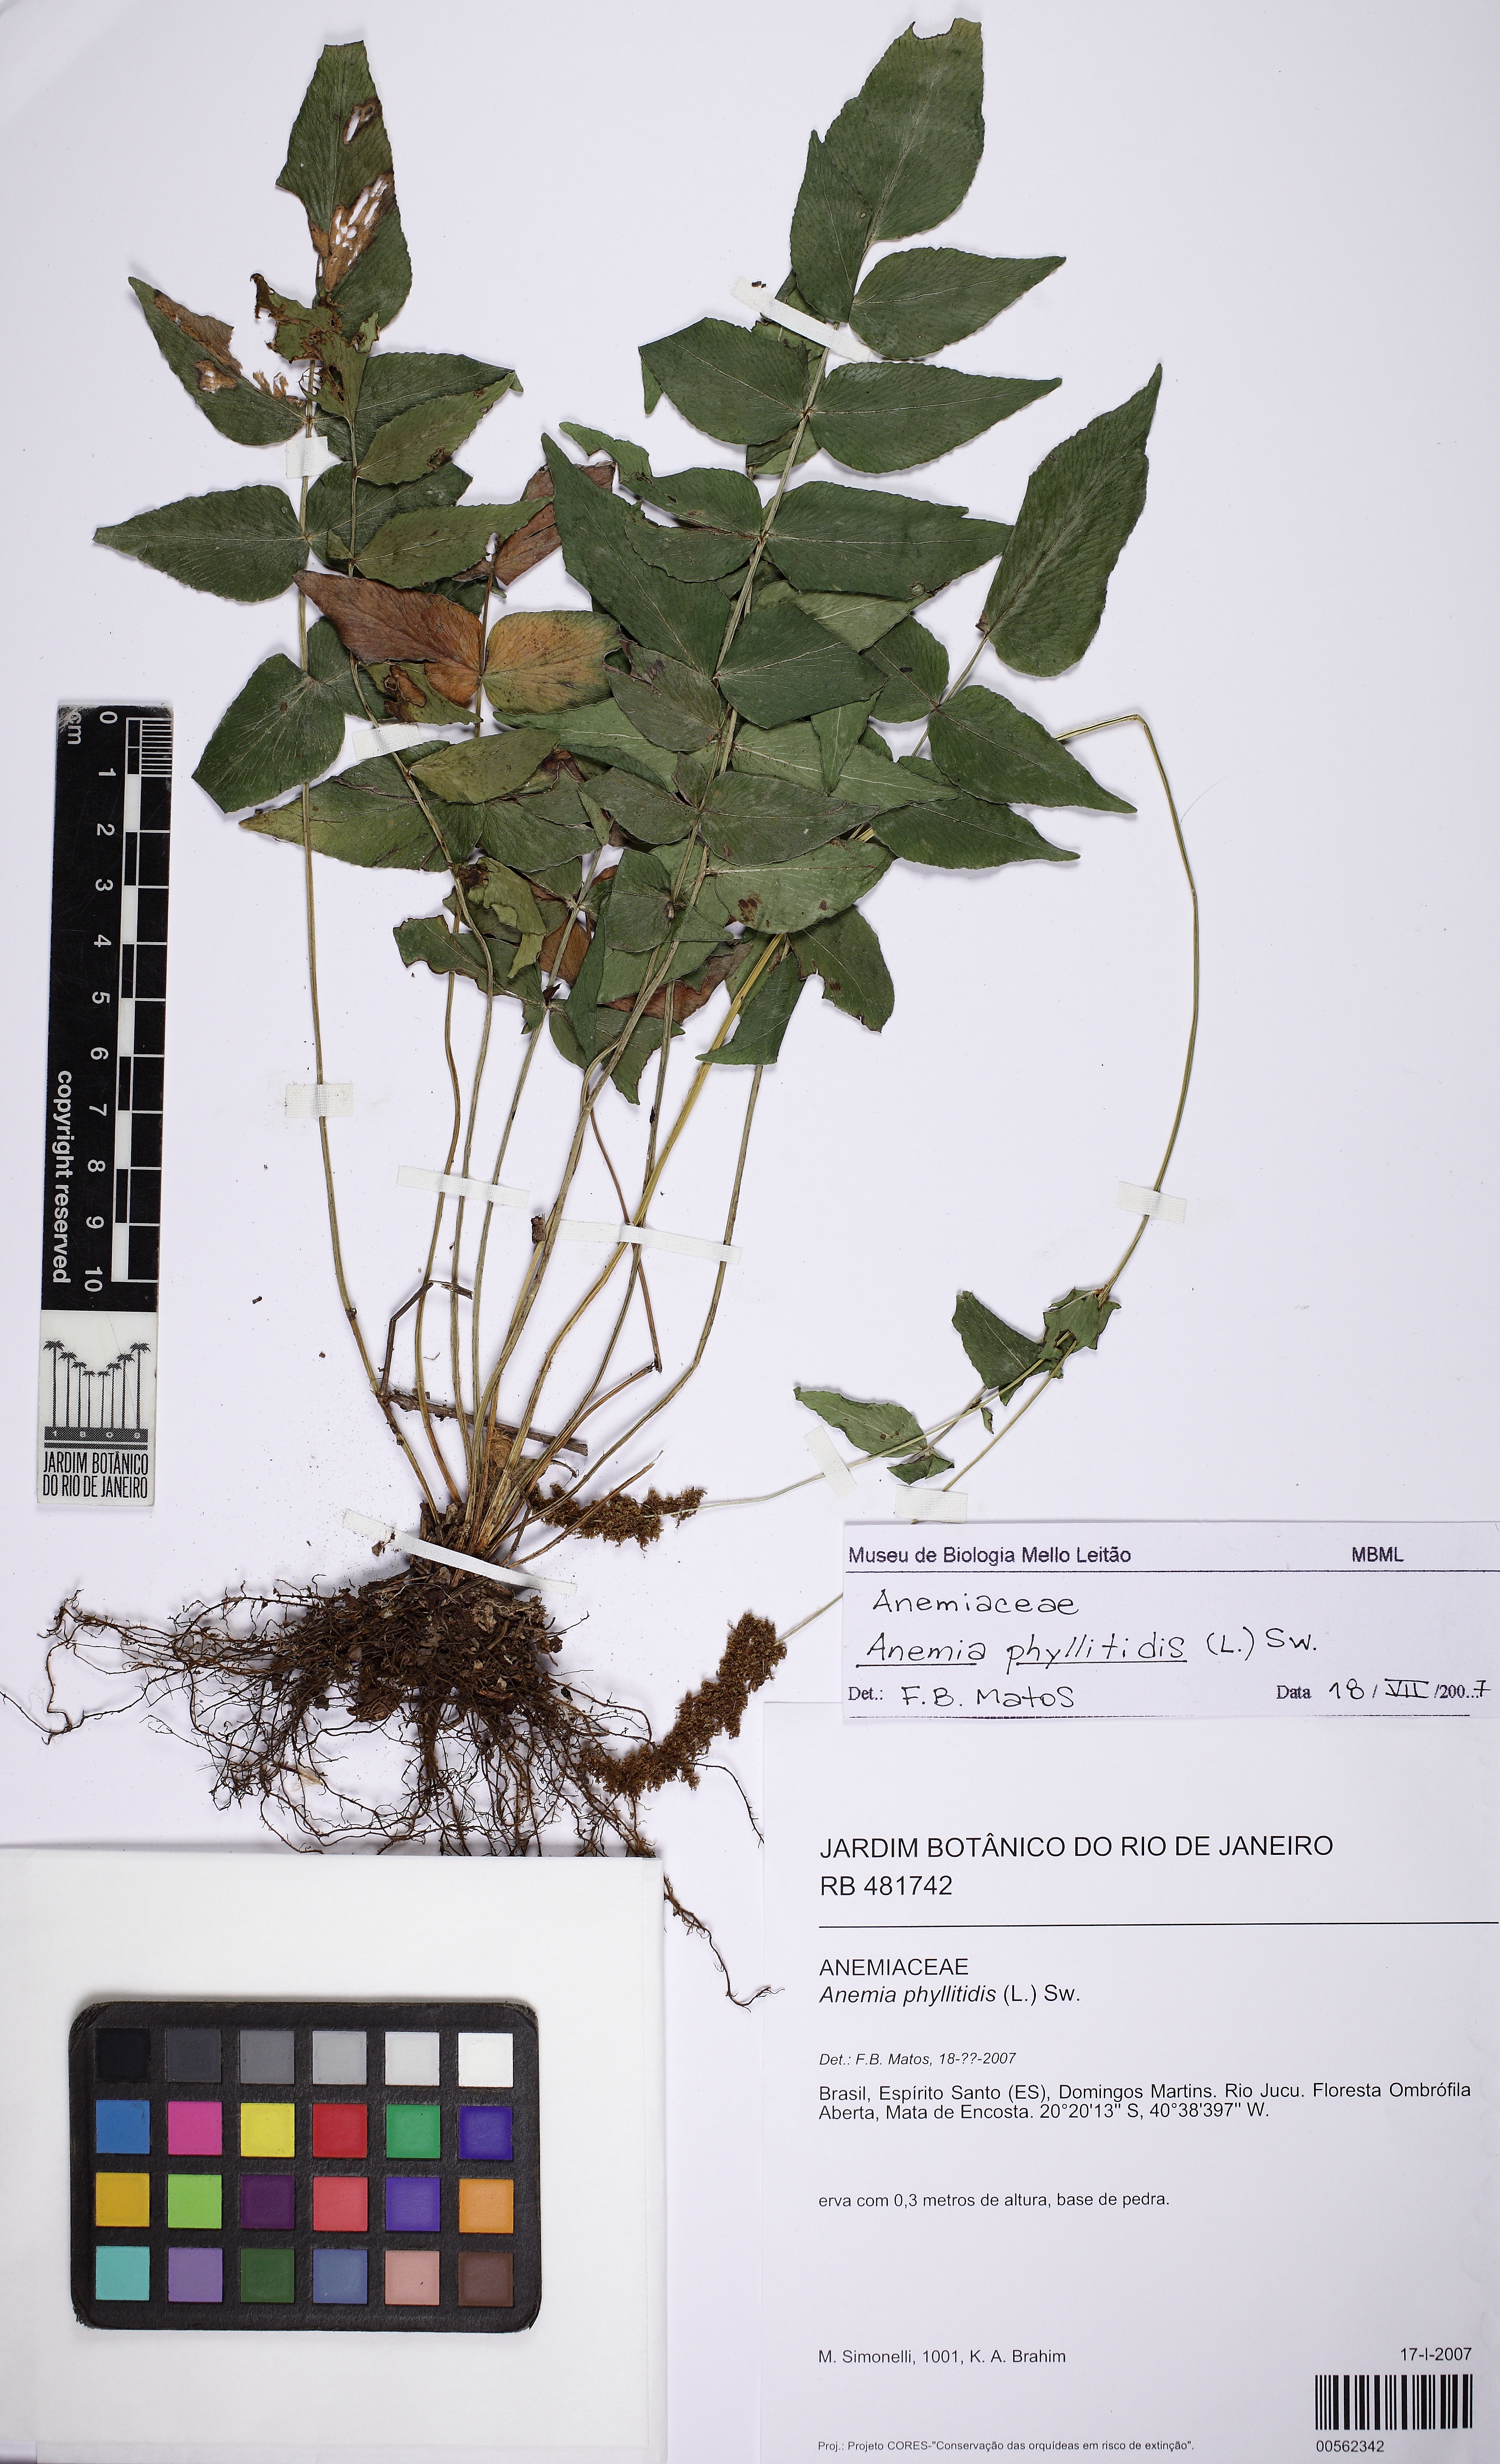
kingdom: Plantae
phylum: Tracheophyta
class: Polypodiopsida
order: Schizaeales
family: Anemiaceae
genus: Anemia
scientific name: Anemia phyllitidis
